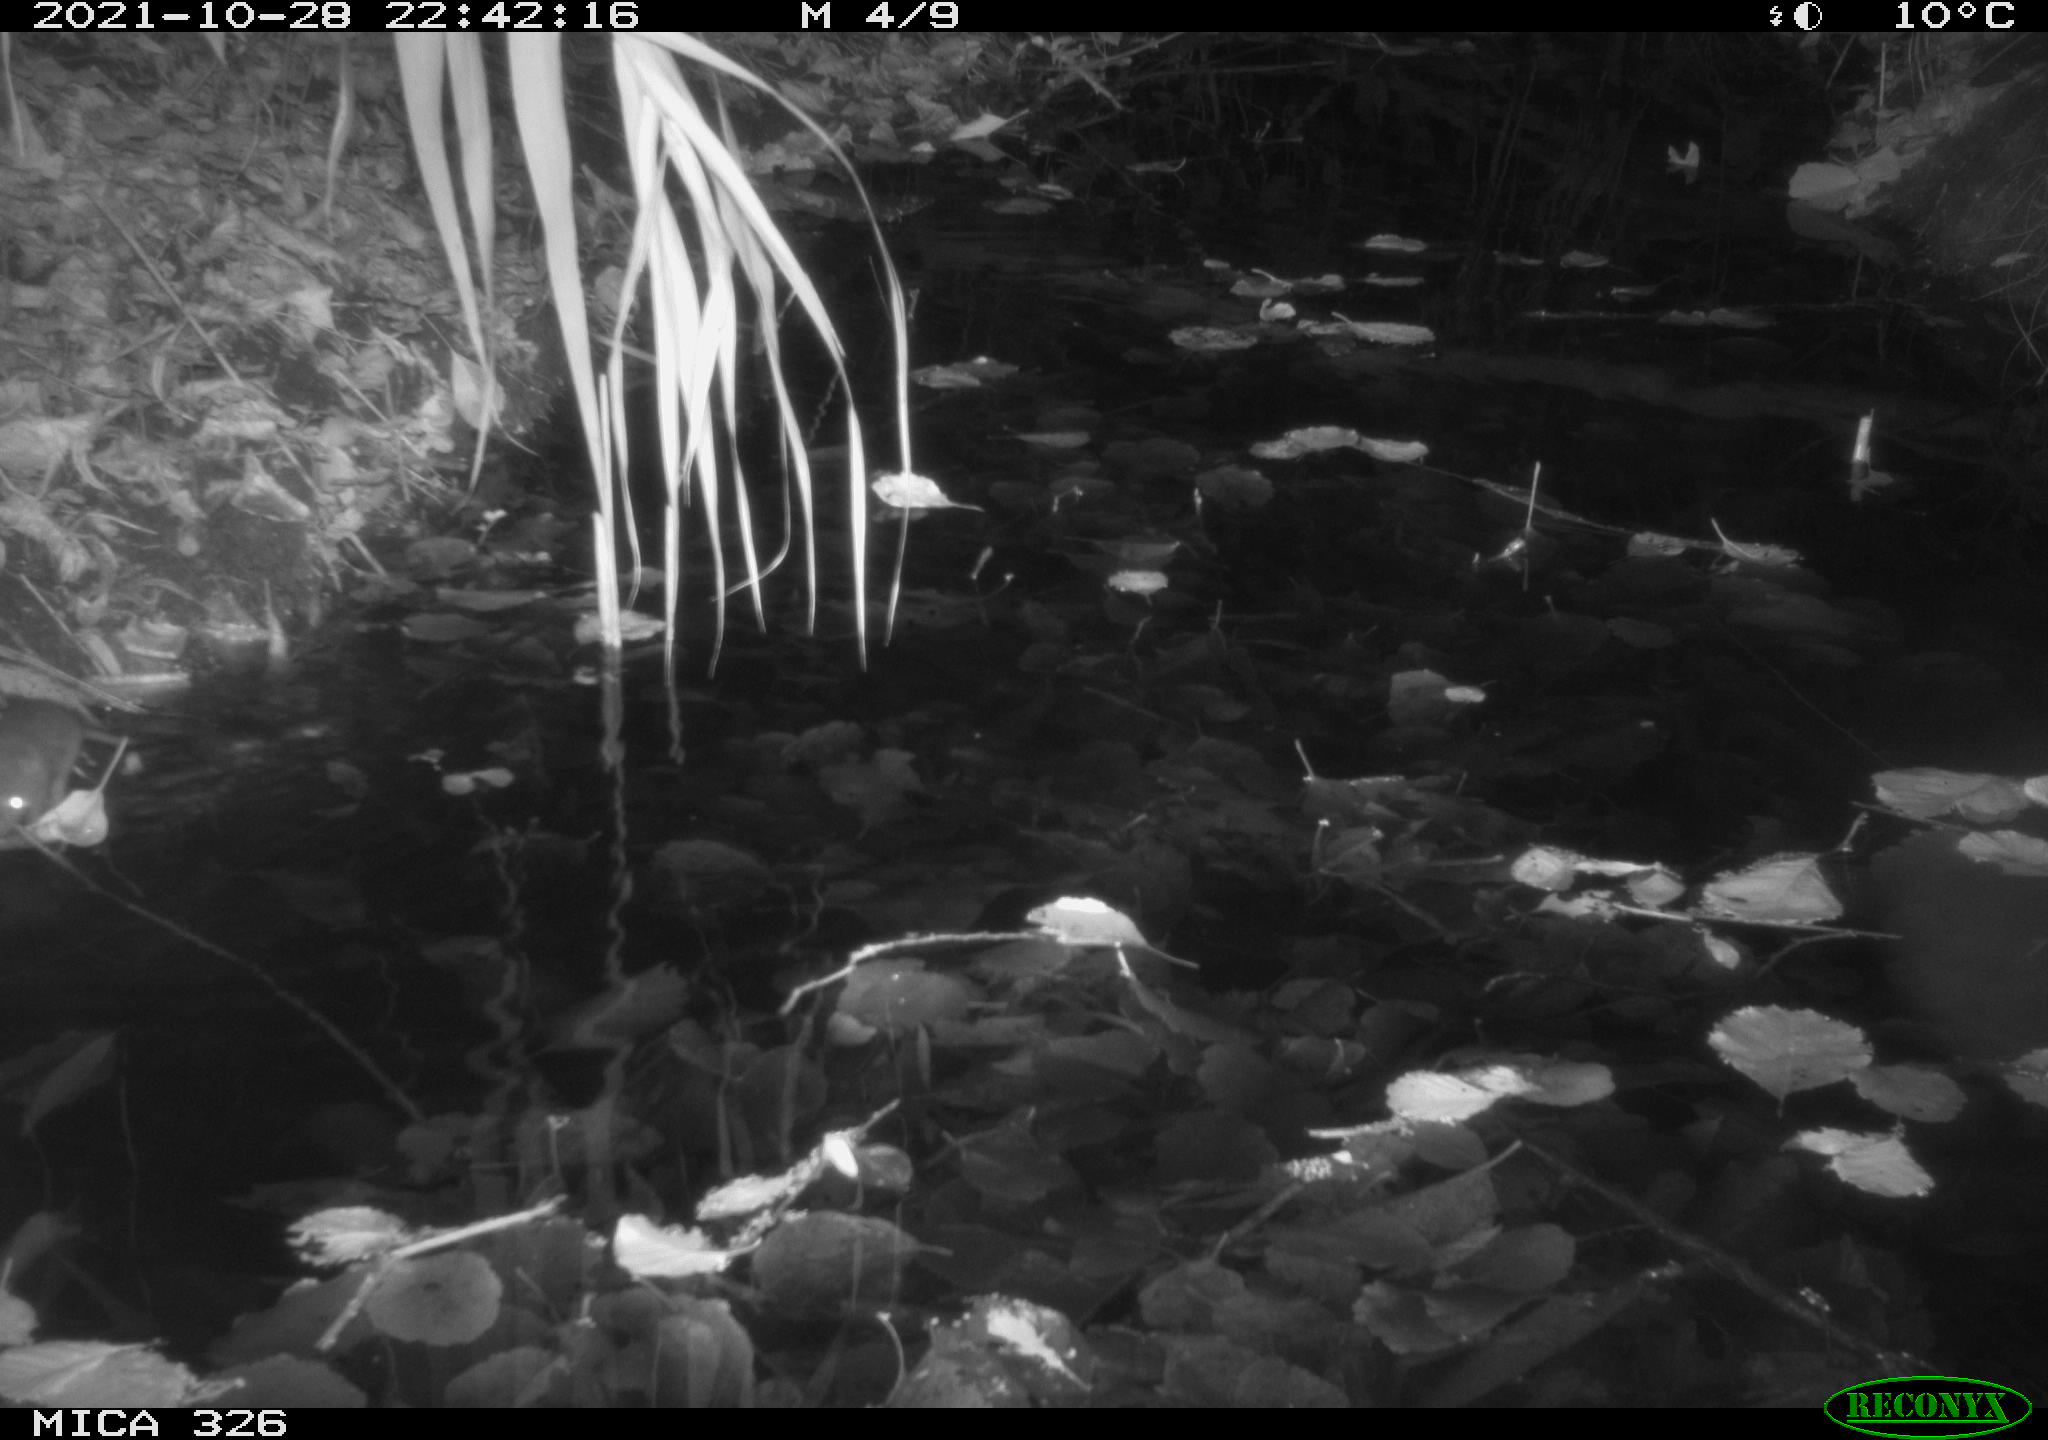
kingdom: Animalia
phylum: Chordata
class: Mammalia
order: Rodentia
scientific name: Rodentia
